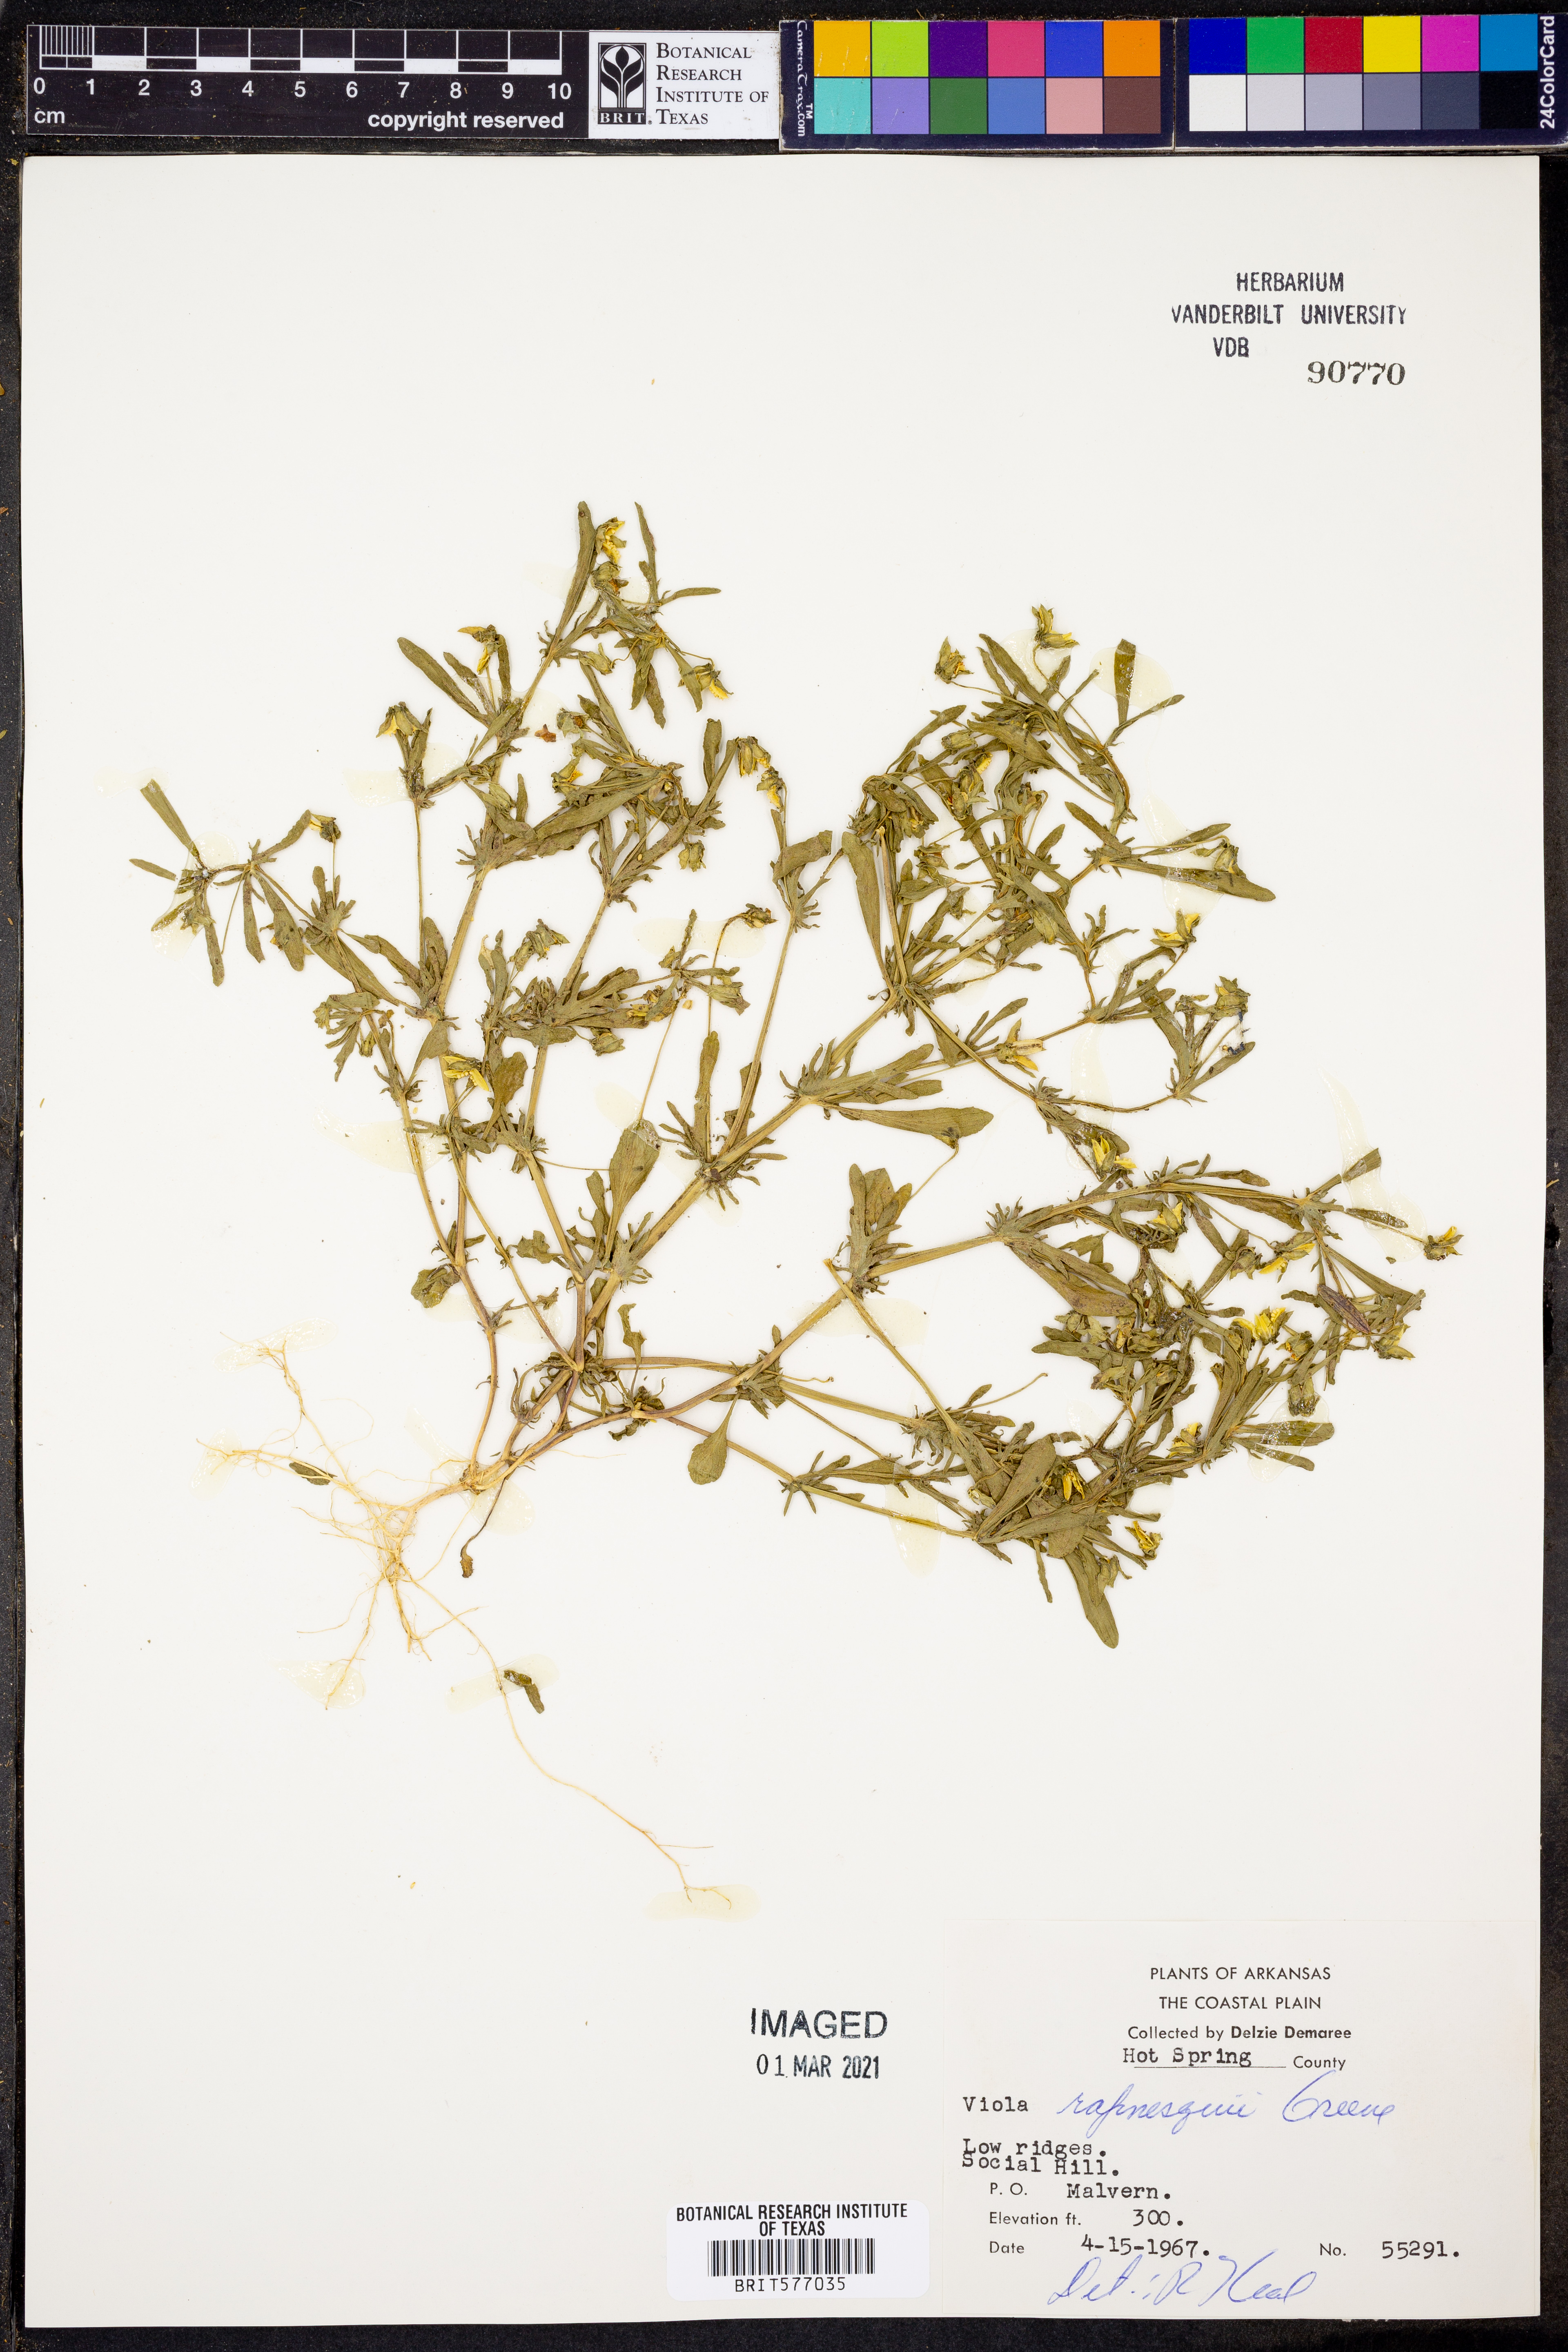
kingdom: Plantae
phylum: Tracheophyta
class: Magnoliopsida
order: Malpighiales
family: Violaceae
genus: Viola
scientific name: Viola rafinesquei
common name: American field pansy
